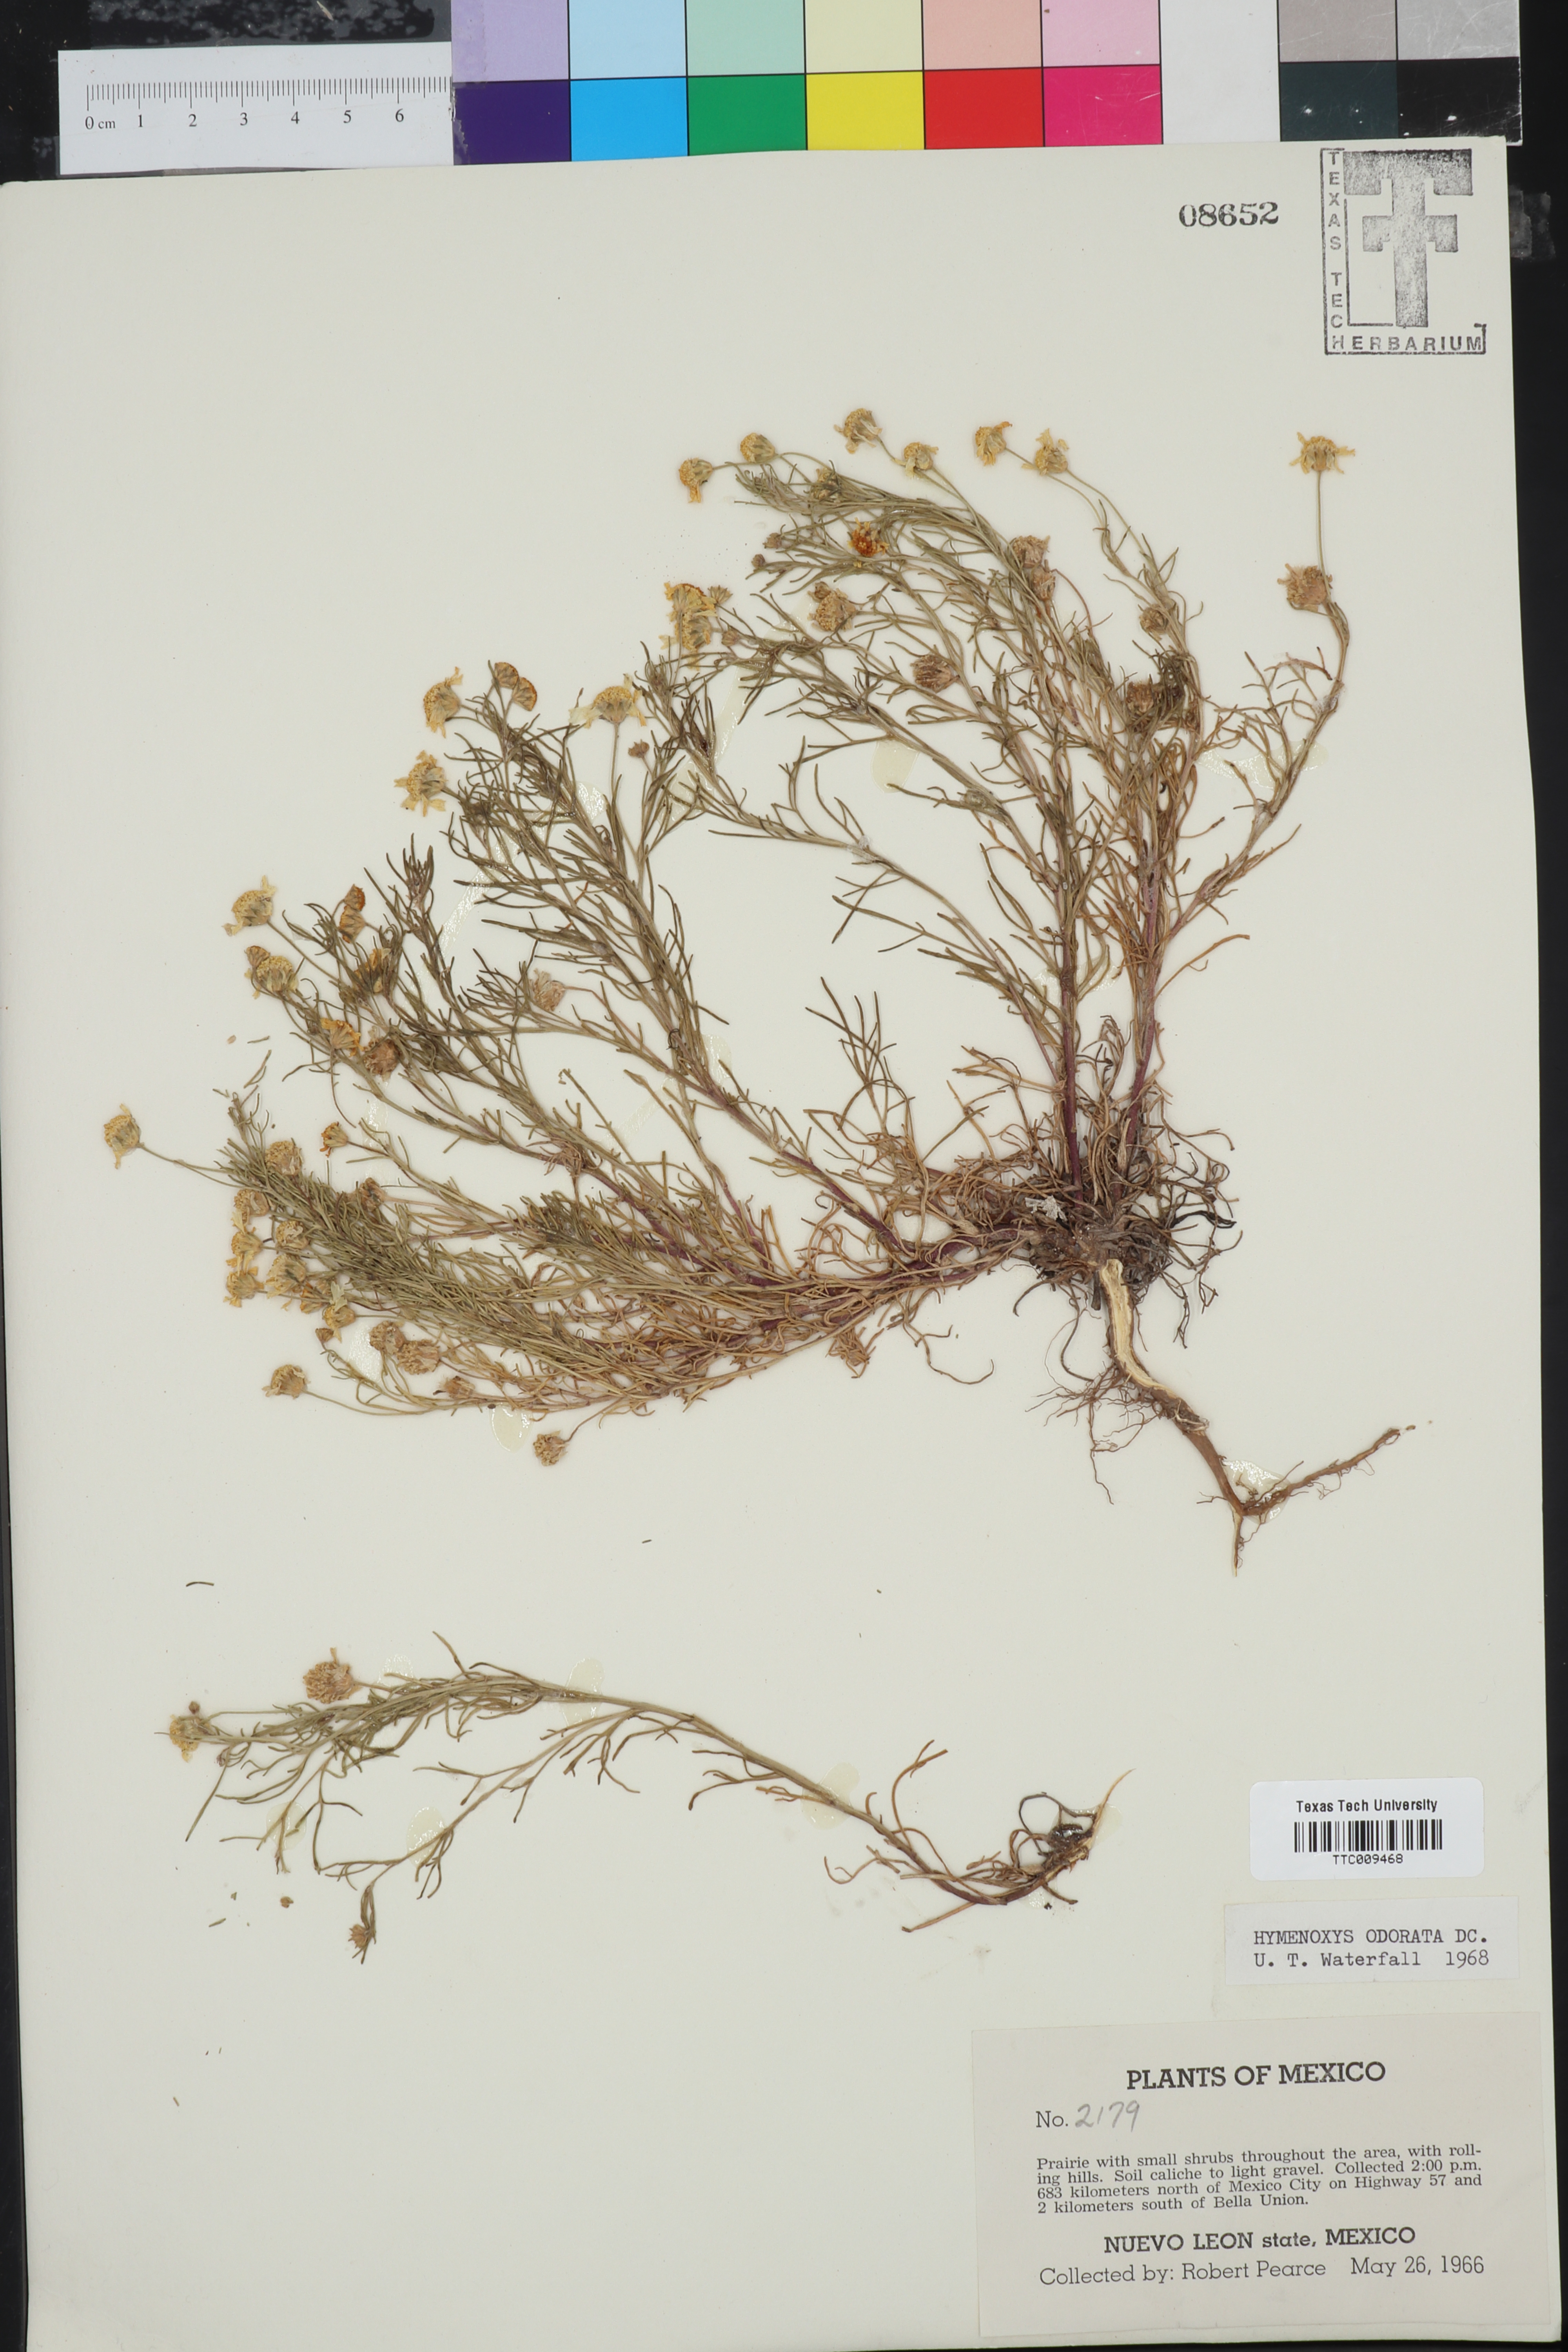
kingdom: Plantae
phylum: Tracheophyta
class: Magnoliopsida
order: Asterales
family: Asteraceae
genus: Hymenoxys
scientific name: Hymenoxys odorata
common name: Bitter rubberweed
